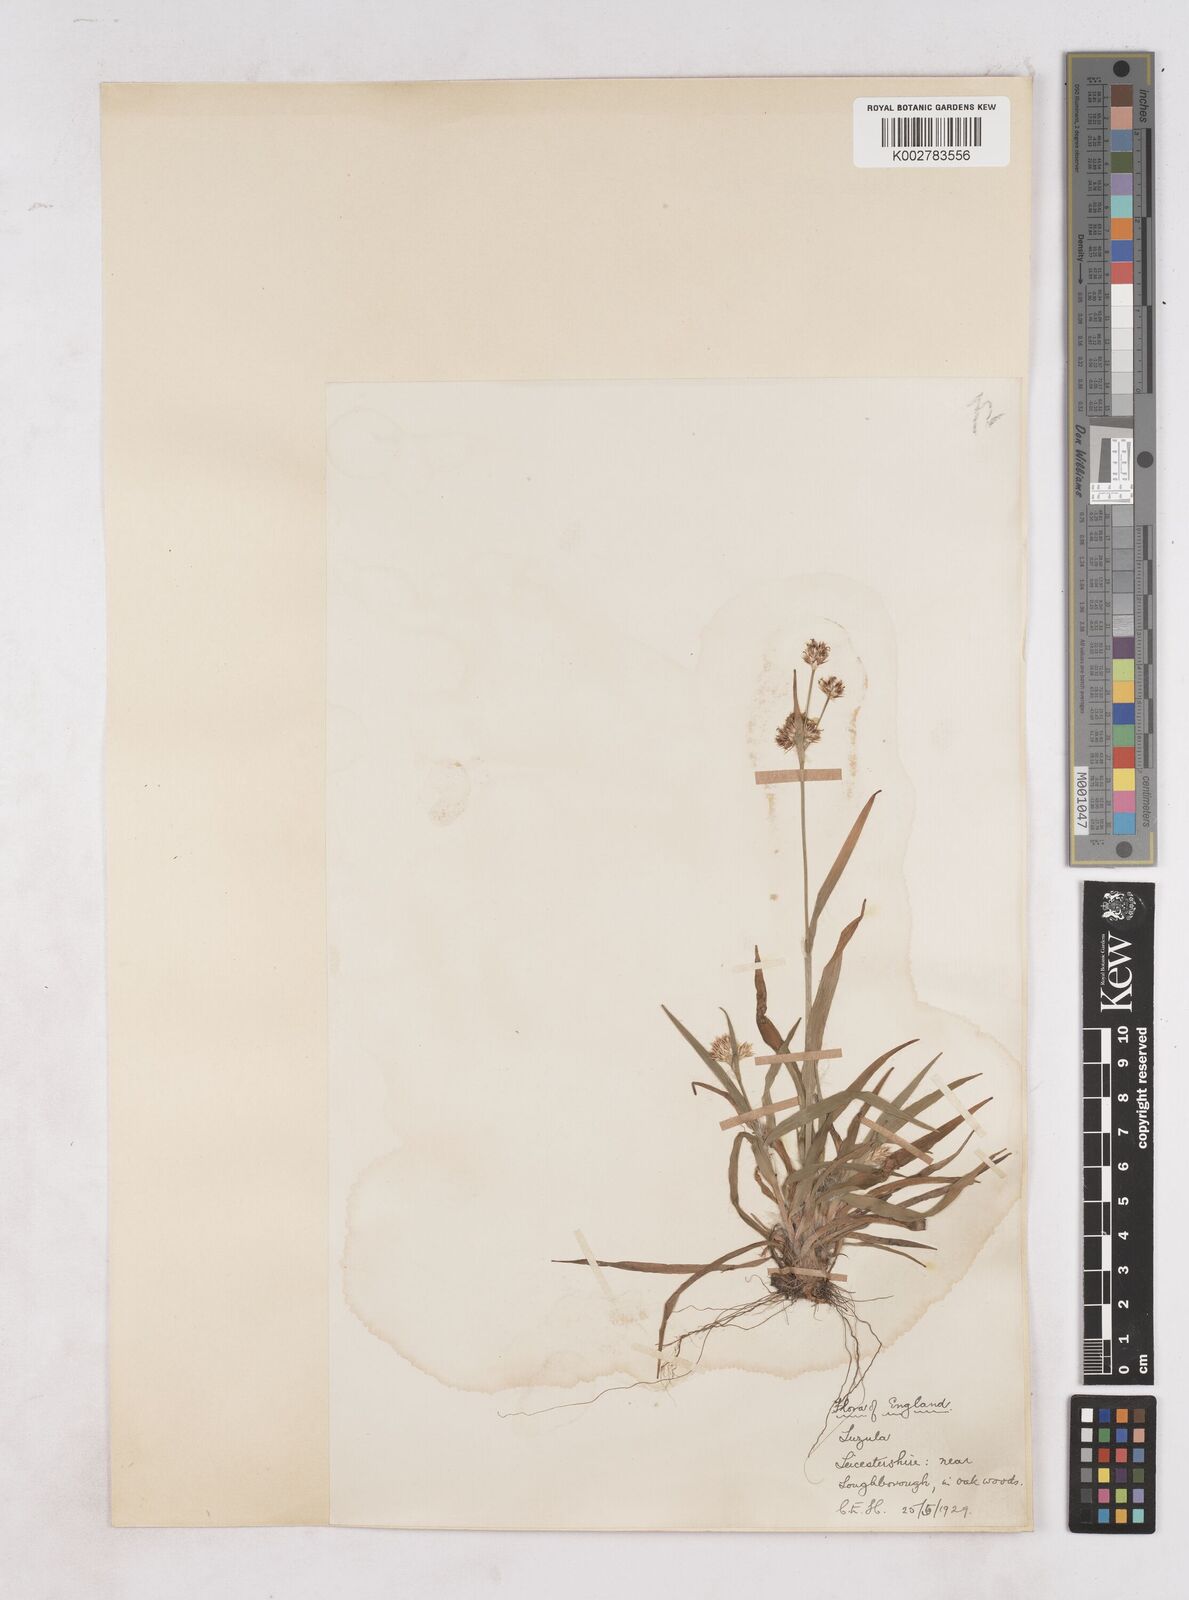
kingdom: Plantae
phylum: Tracheophyta
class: Liliopsida
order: Poales
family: Juncaceae
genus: Luzula
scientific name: Luzula
